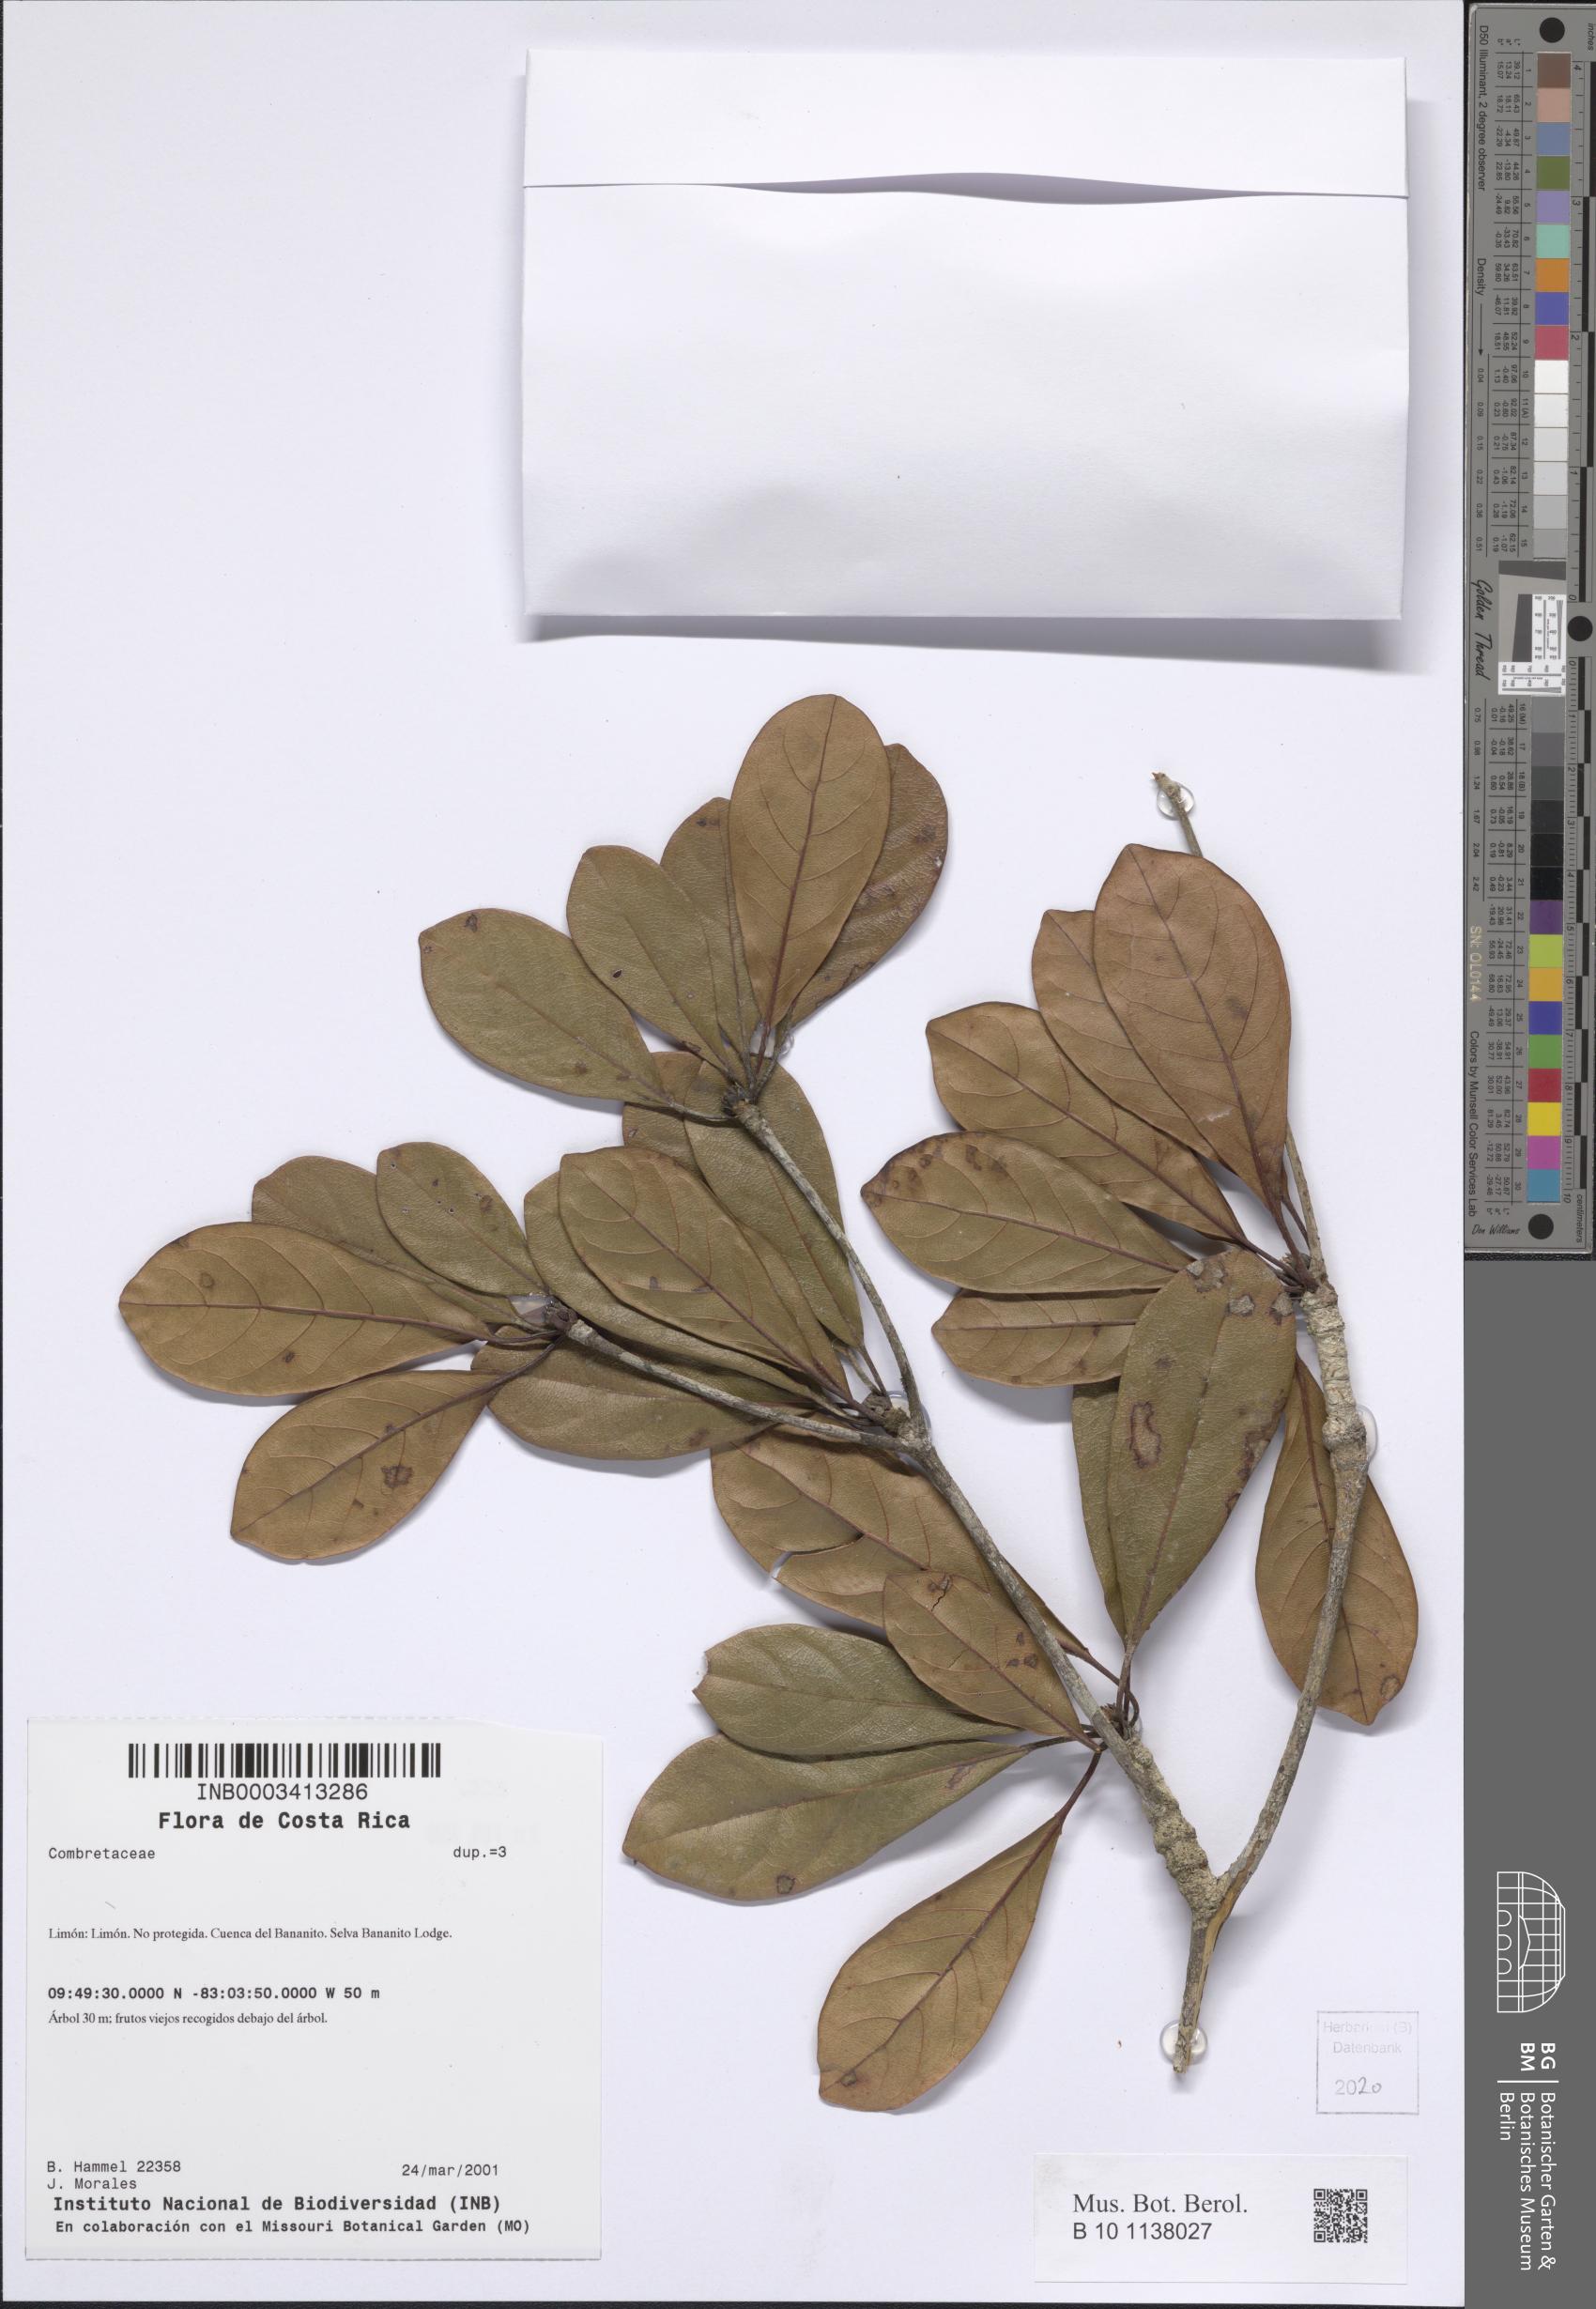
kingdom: Plantae
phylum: Tracheophyta
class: Magnoliopsida
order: Myrtales
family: Combretaceae
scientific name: Combretaceae
